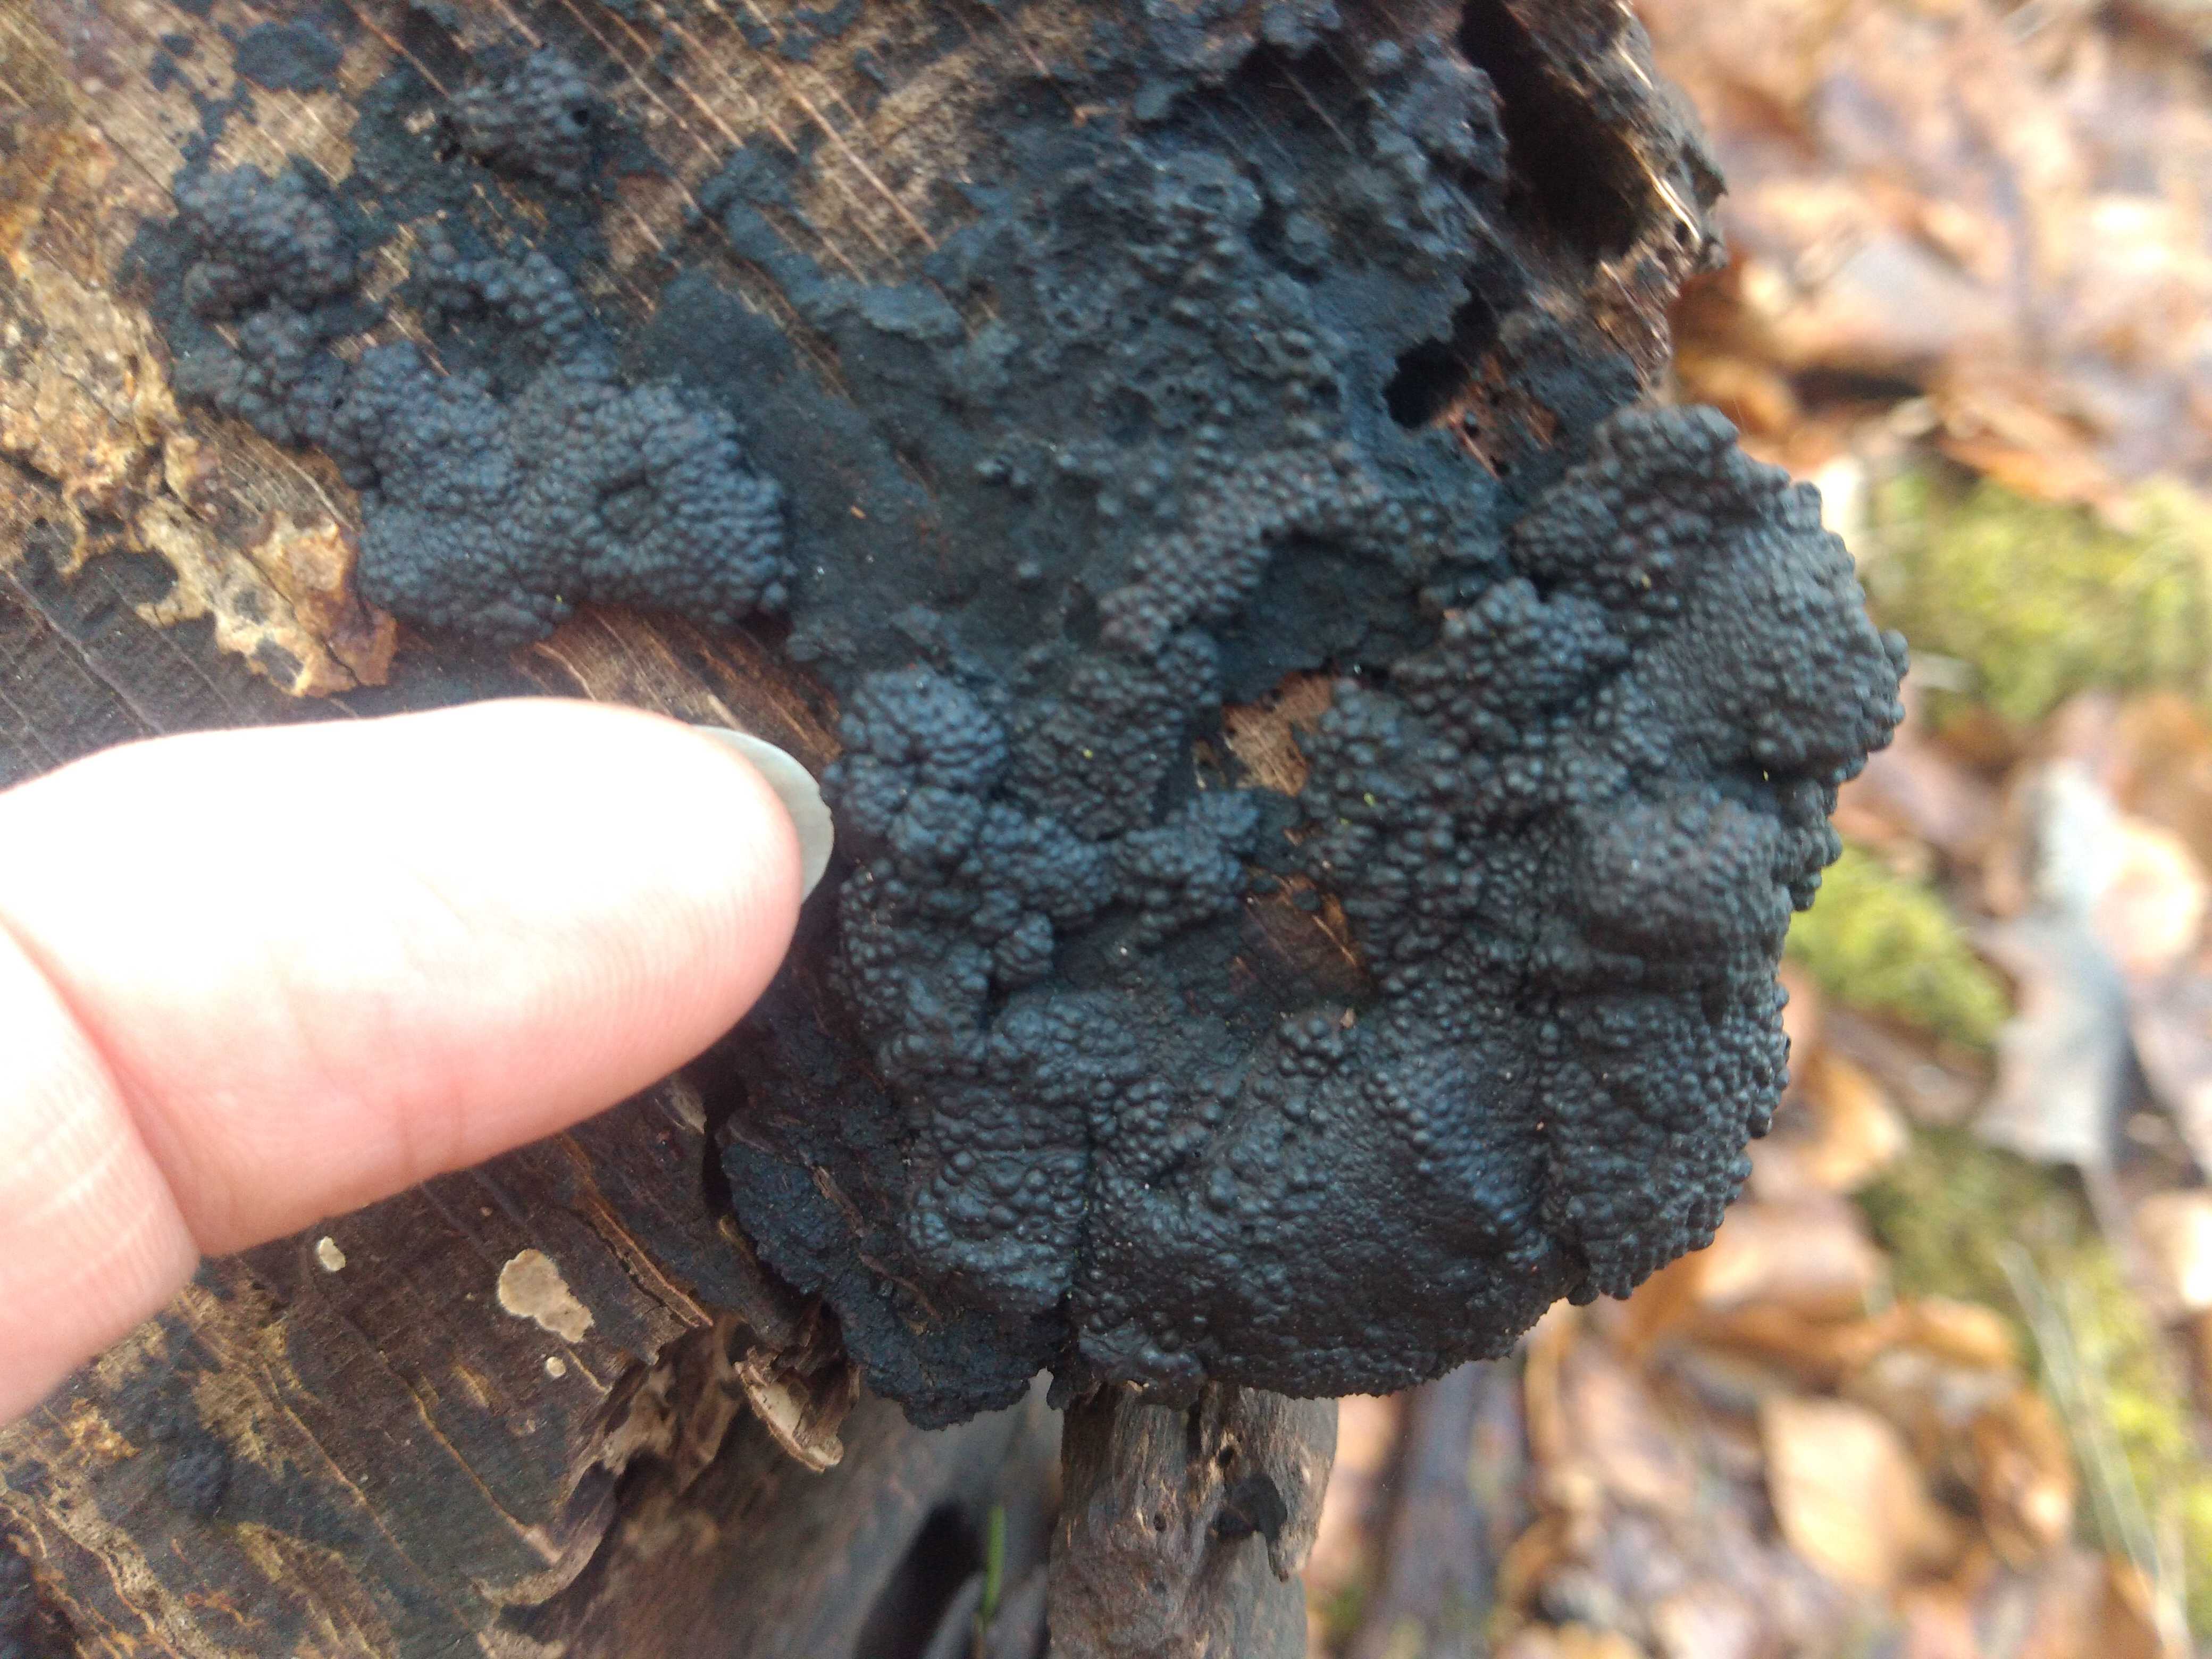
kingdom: Fungi
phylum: Ascomycota
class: Sordariomycetes
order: Xylariales
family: Hypoxylaceae
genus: Jackrogersella
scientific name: Jackrogersella
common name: kulbær
